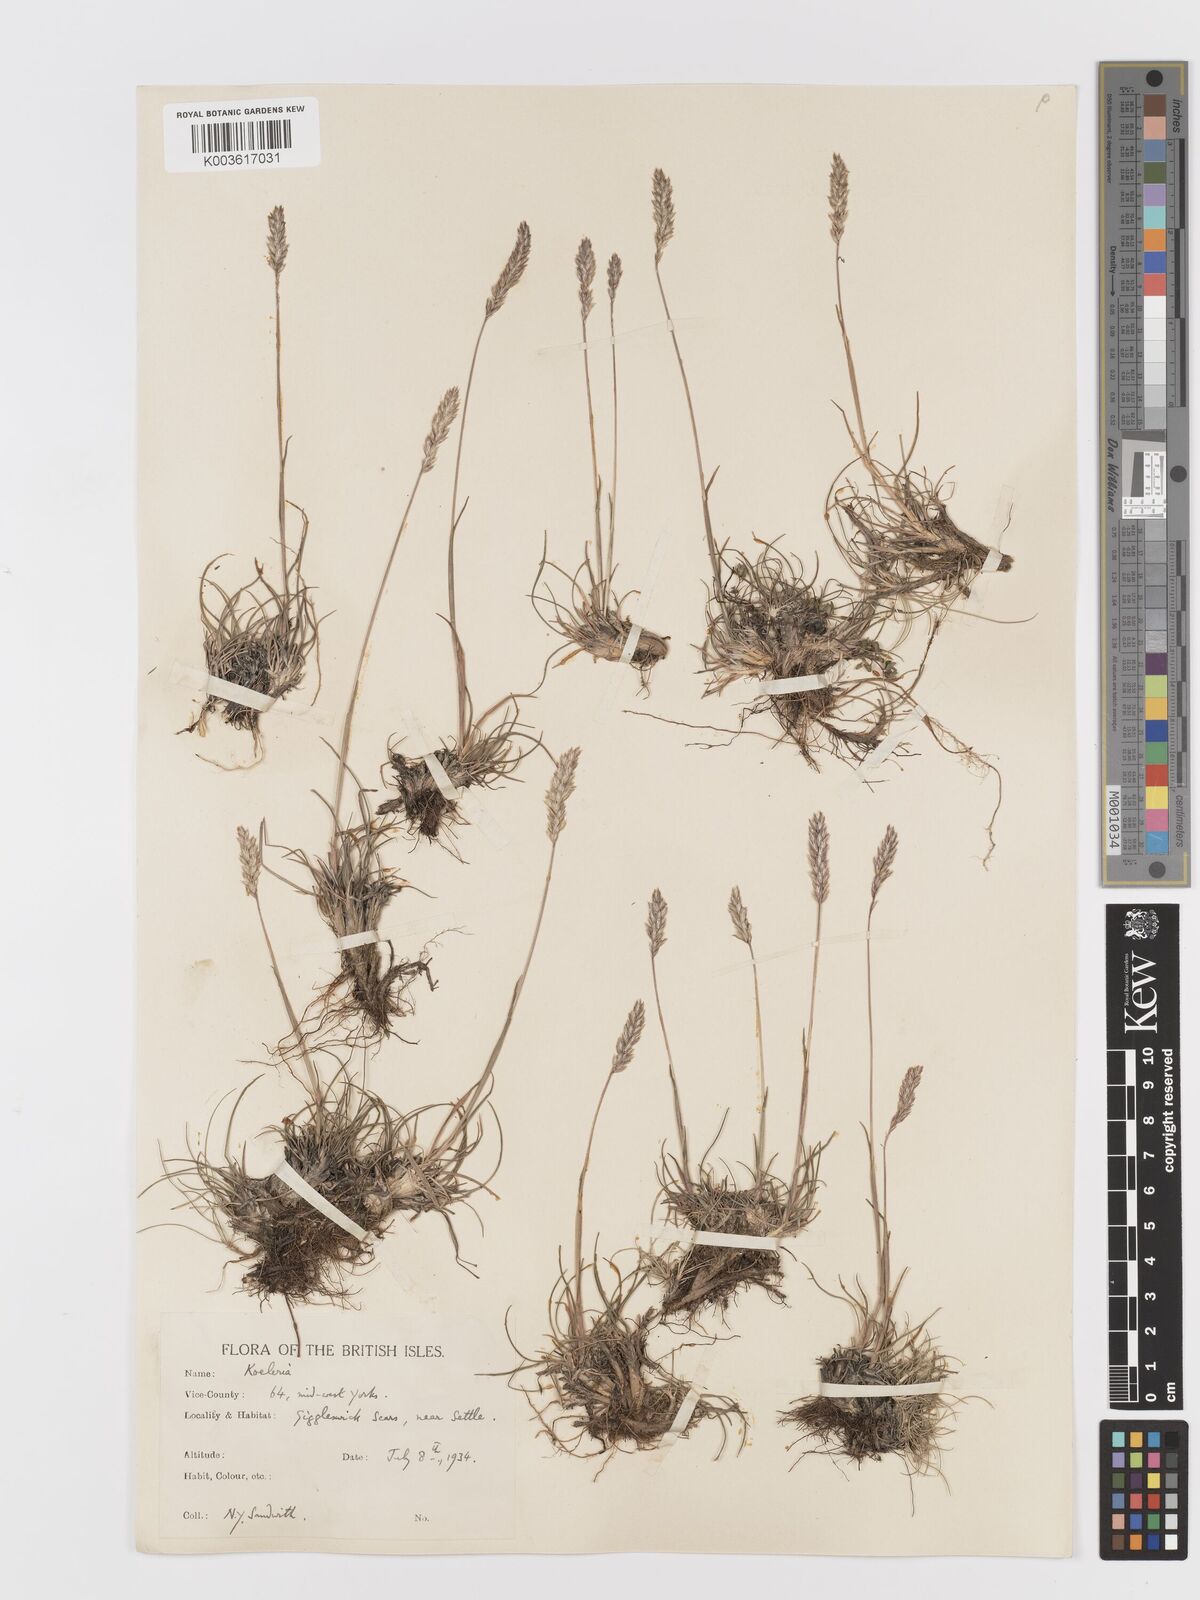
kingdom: Plantae
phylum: Tracheophyta
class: Liliopsida
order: Poales
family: Poaceae
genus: Koeleria
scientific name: Koeleria macrantha
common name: Crested hair-grass
